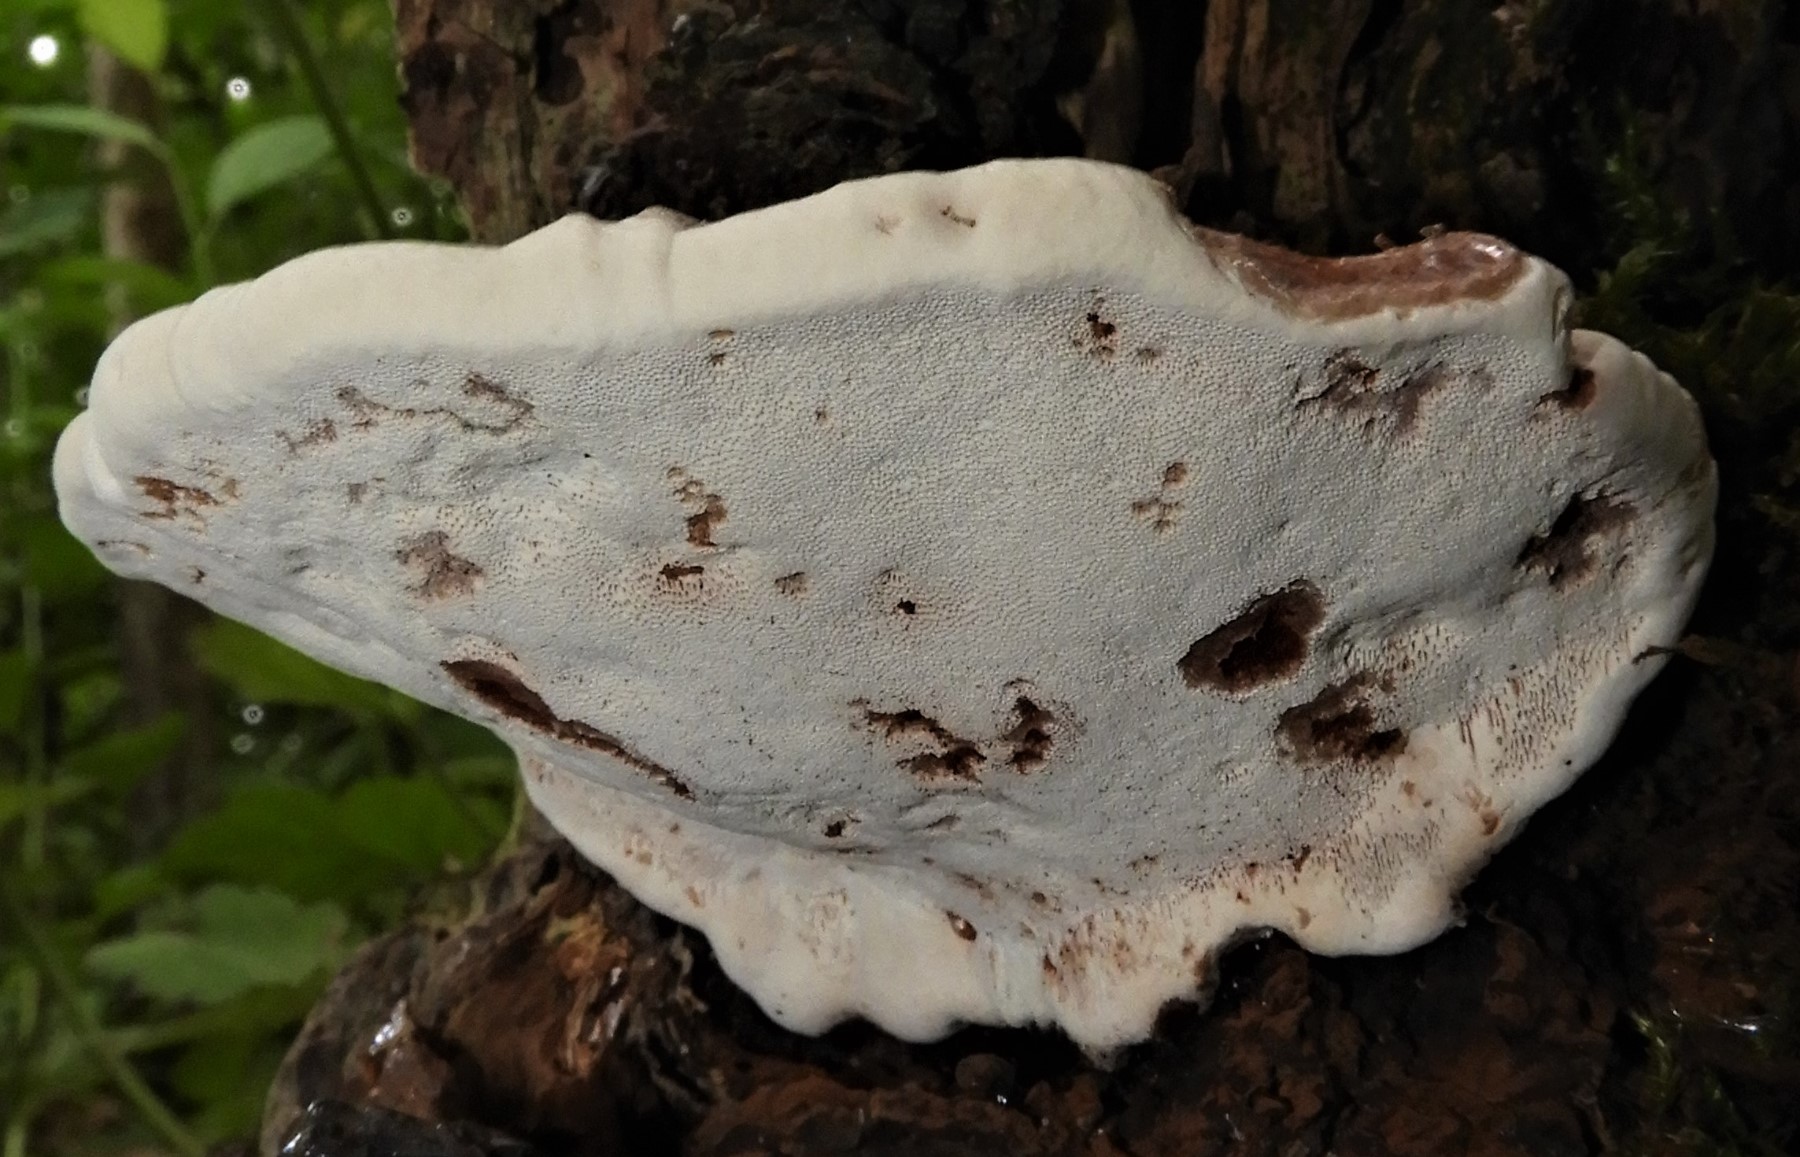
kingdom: Fungi
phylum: Basidiomycota
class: Agaricomycetes
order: Polyporales
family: Polyporaceae
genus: Ganoderma
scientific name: Ganoderma applanatum
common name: flad lakporesvamp
